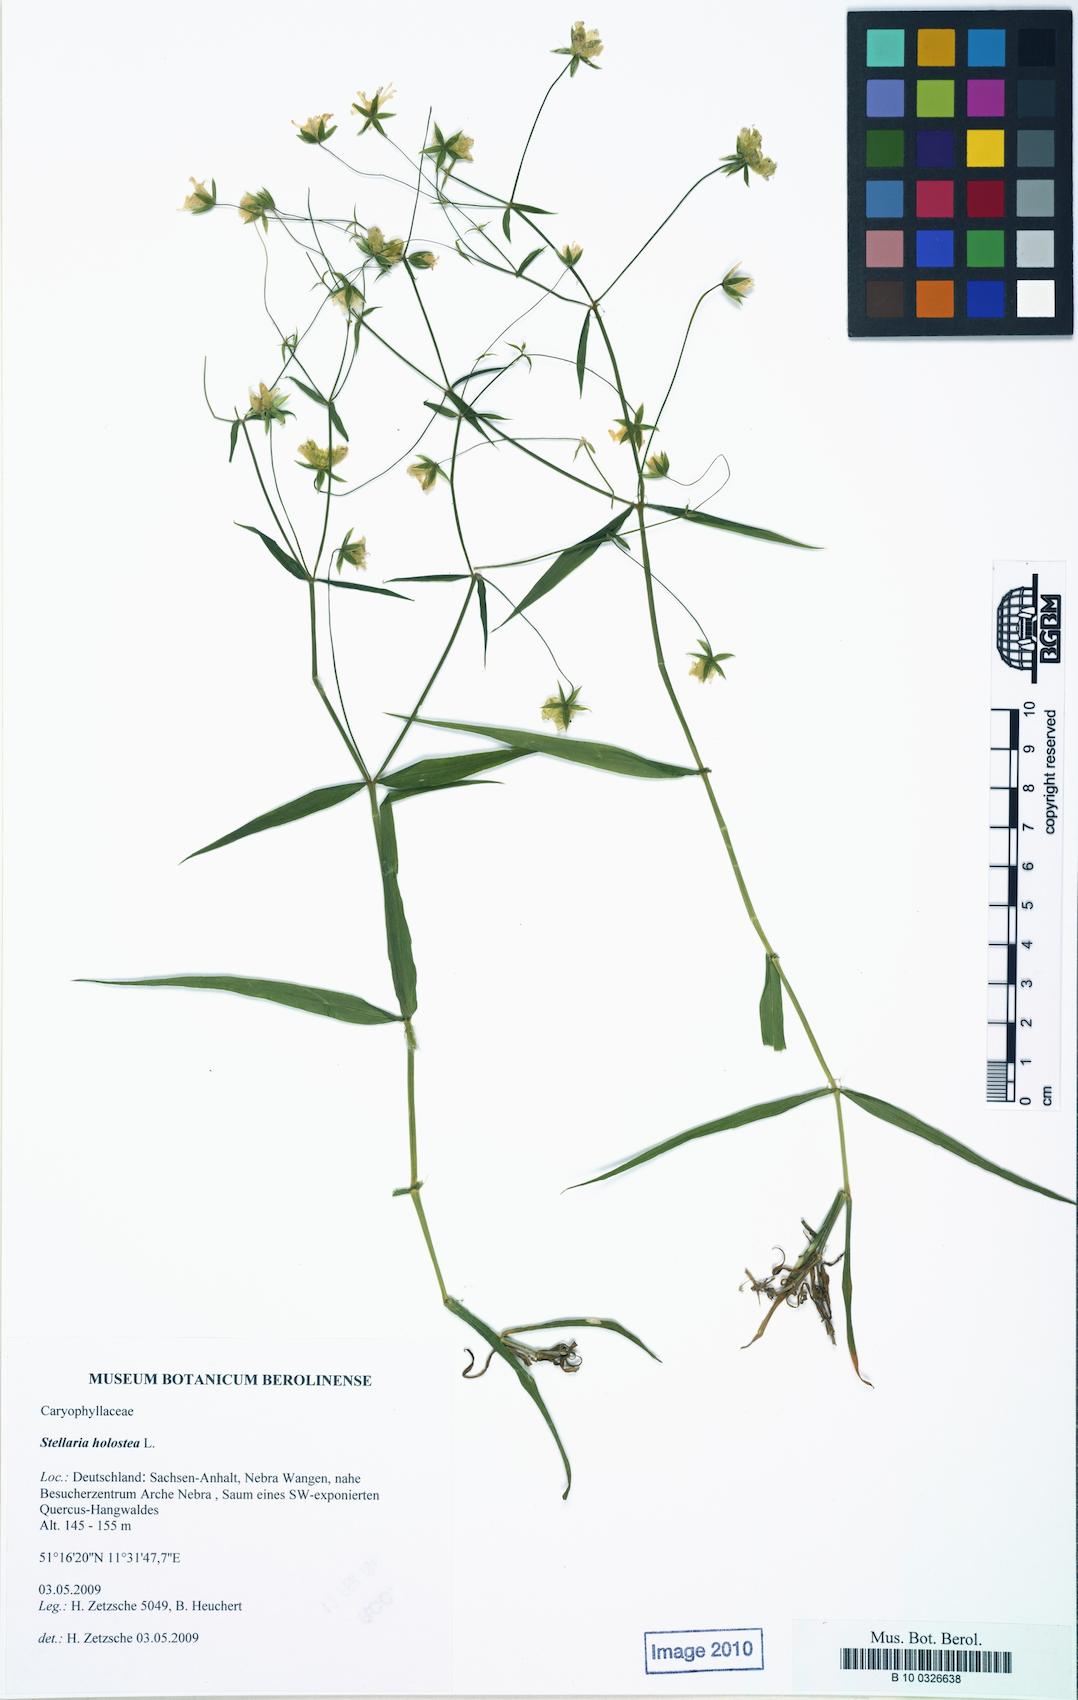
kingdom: Plantae
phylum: Tracheophyta
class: Magnoliopsida
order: Caryophyllales
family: Caryophyllaceae
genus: Rabelera
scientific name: Rabelera holostea
